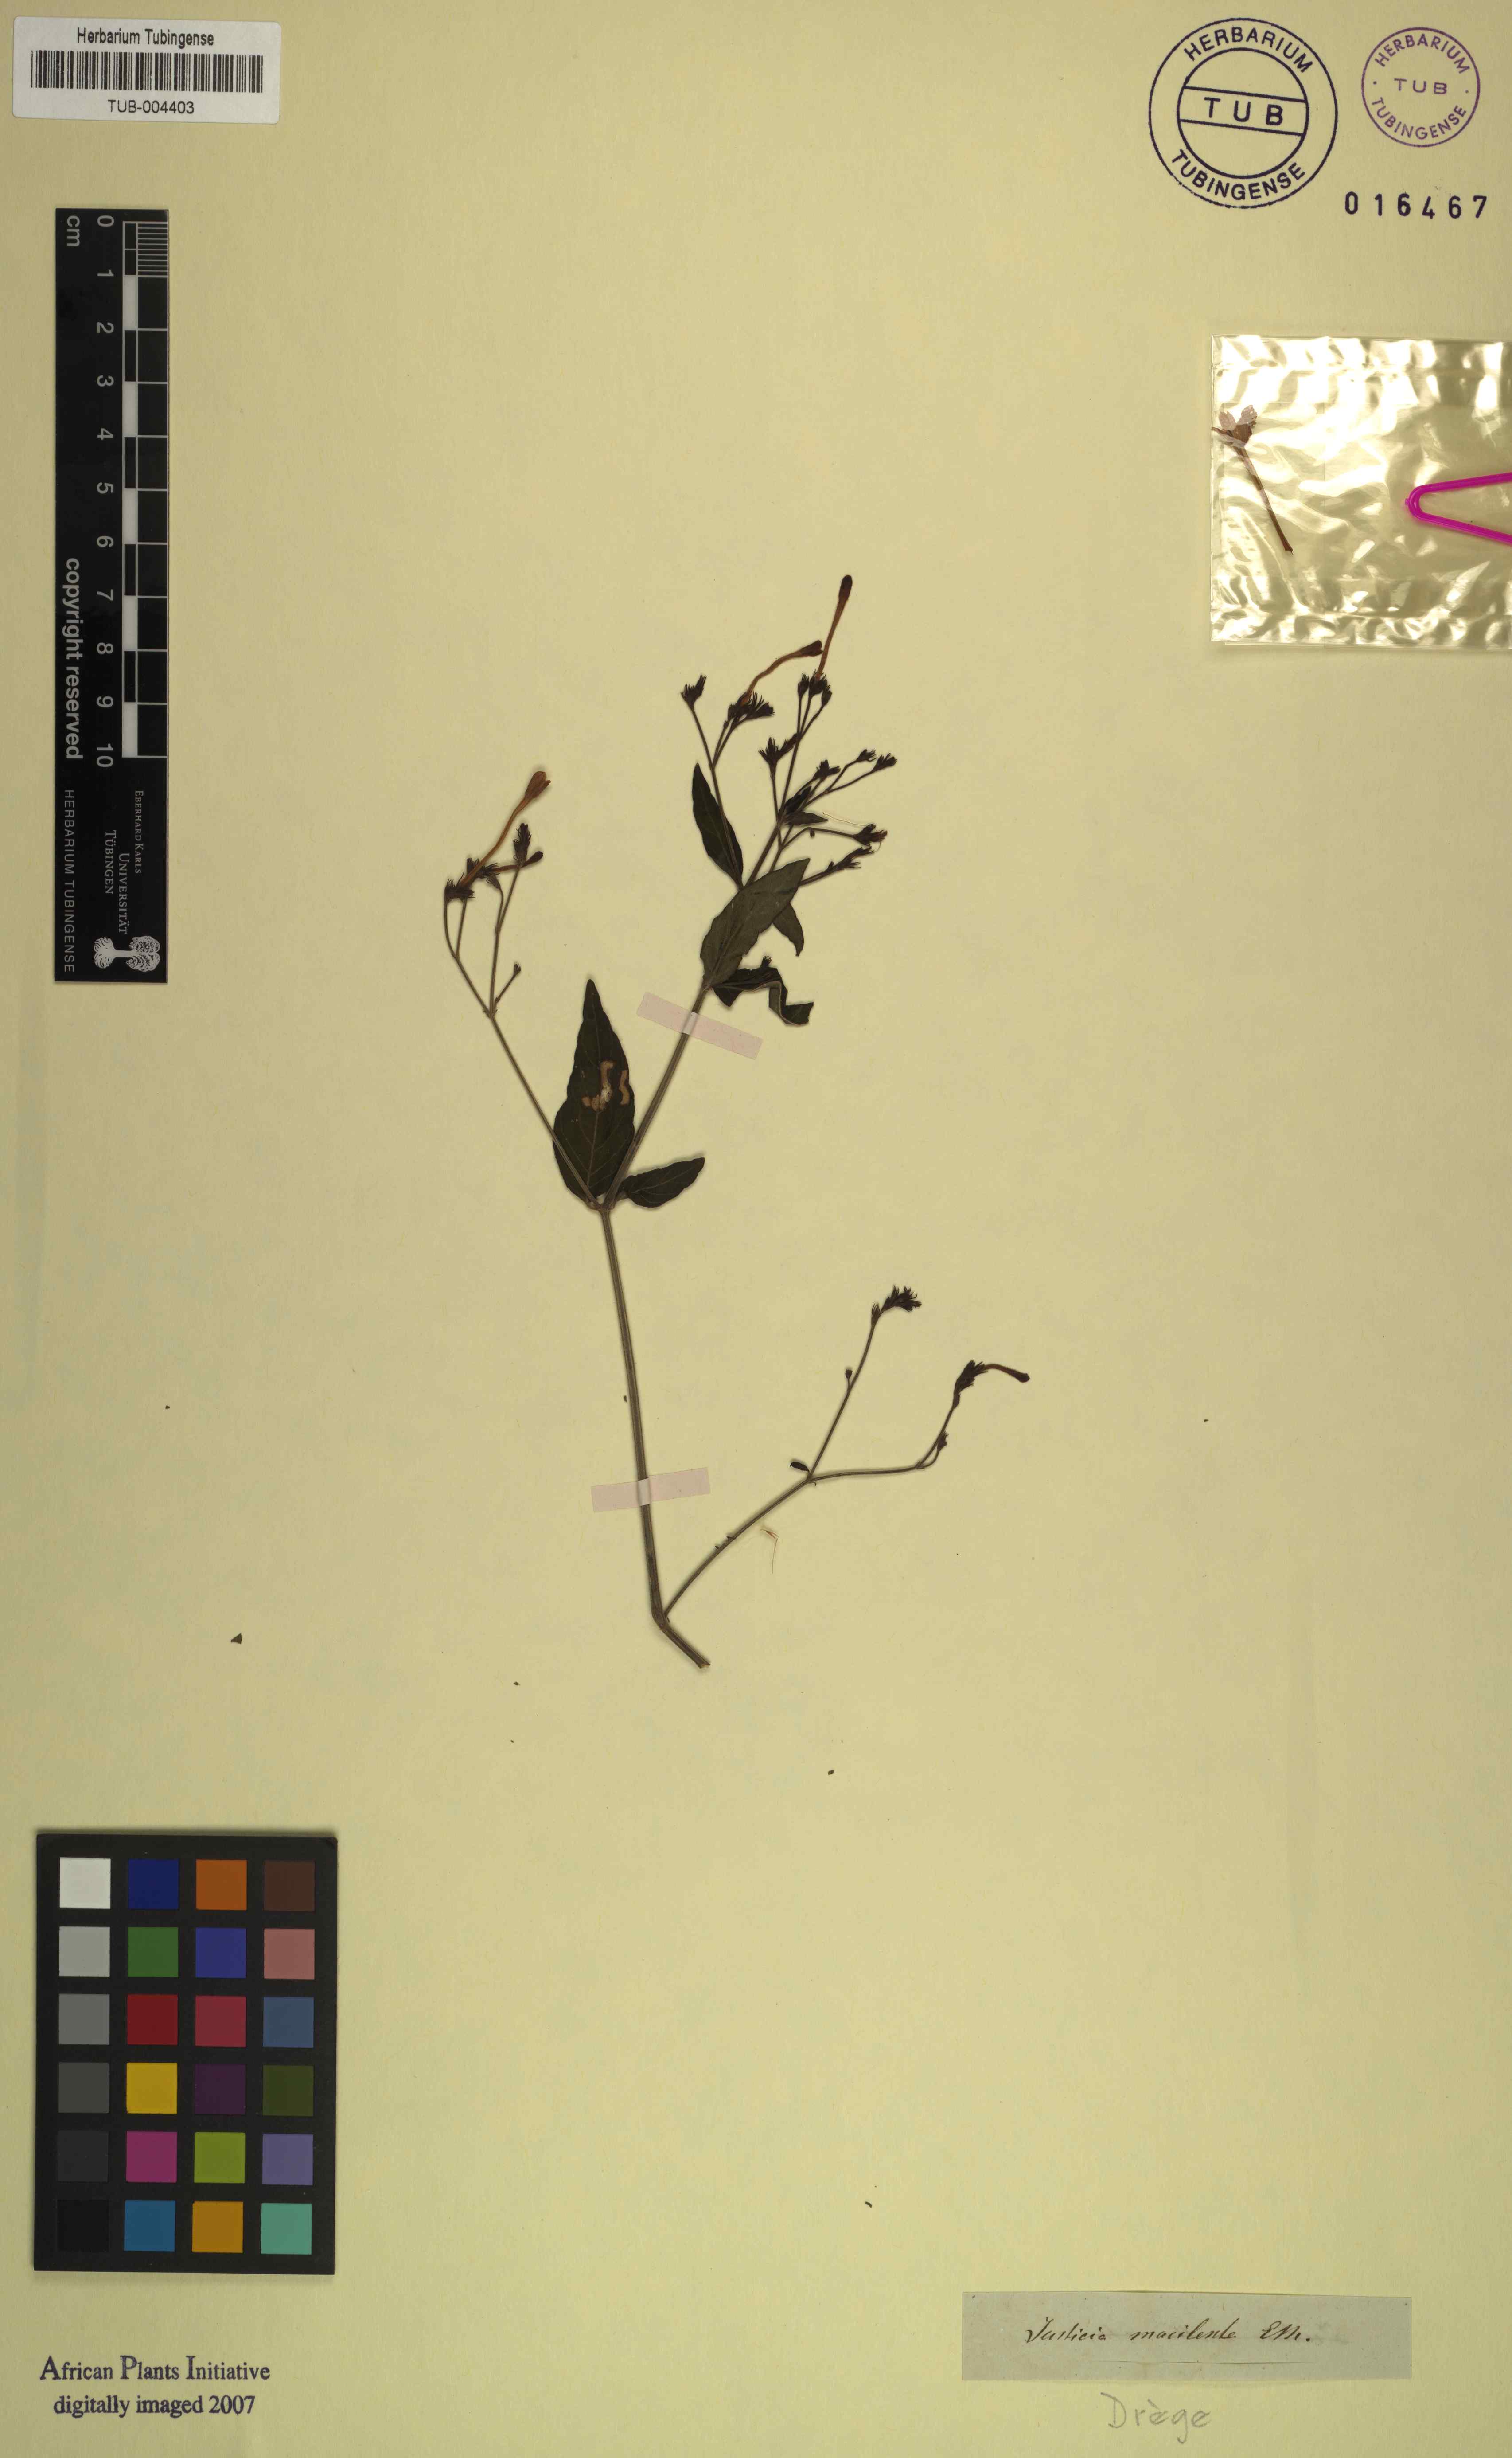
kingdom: Plantae
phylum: Tracheophyta
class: Magnoliopsida
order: Lamiales
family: Acanthaceae
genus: Rhinacanthus
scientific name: Rhinacanthus nasutus
